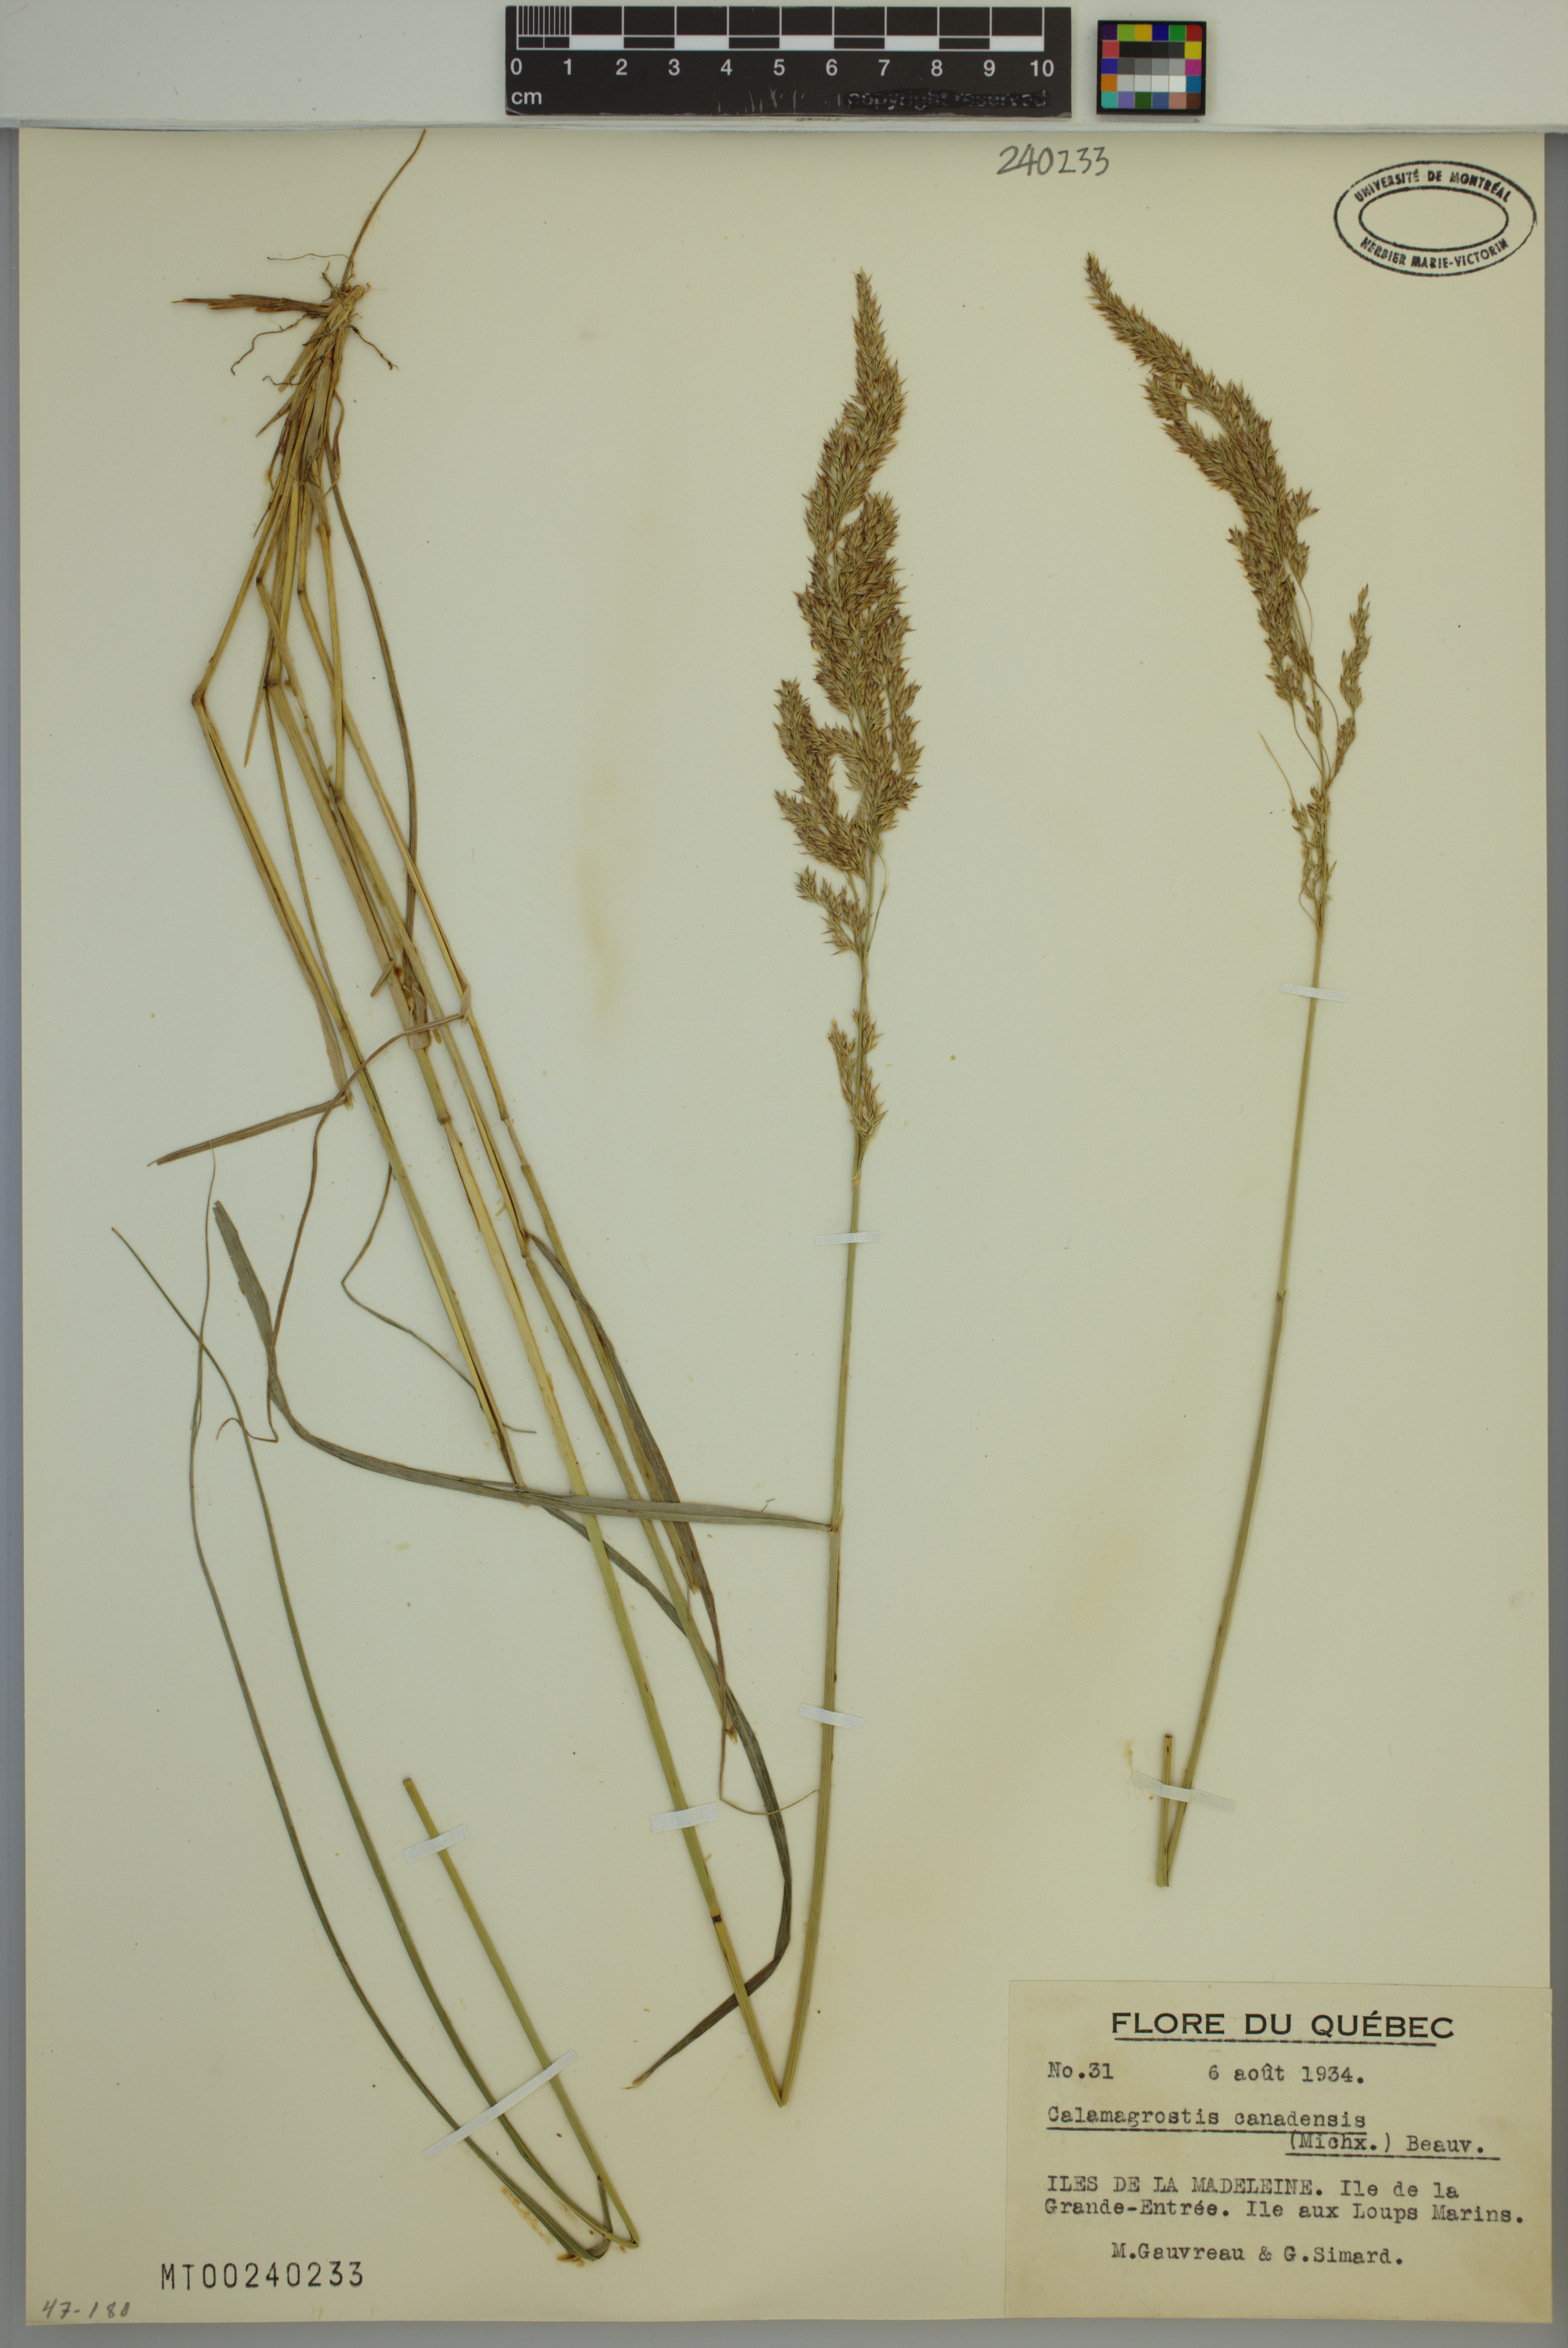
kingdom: Plantae
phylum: Tracheophyta
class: Liliopsida
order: Poales
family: Poaceae
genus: Calamagrostis
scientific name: Calamagrostis canadensis
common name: Canada bluejoint
